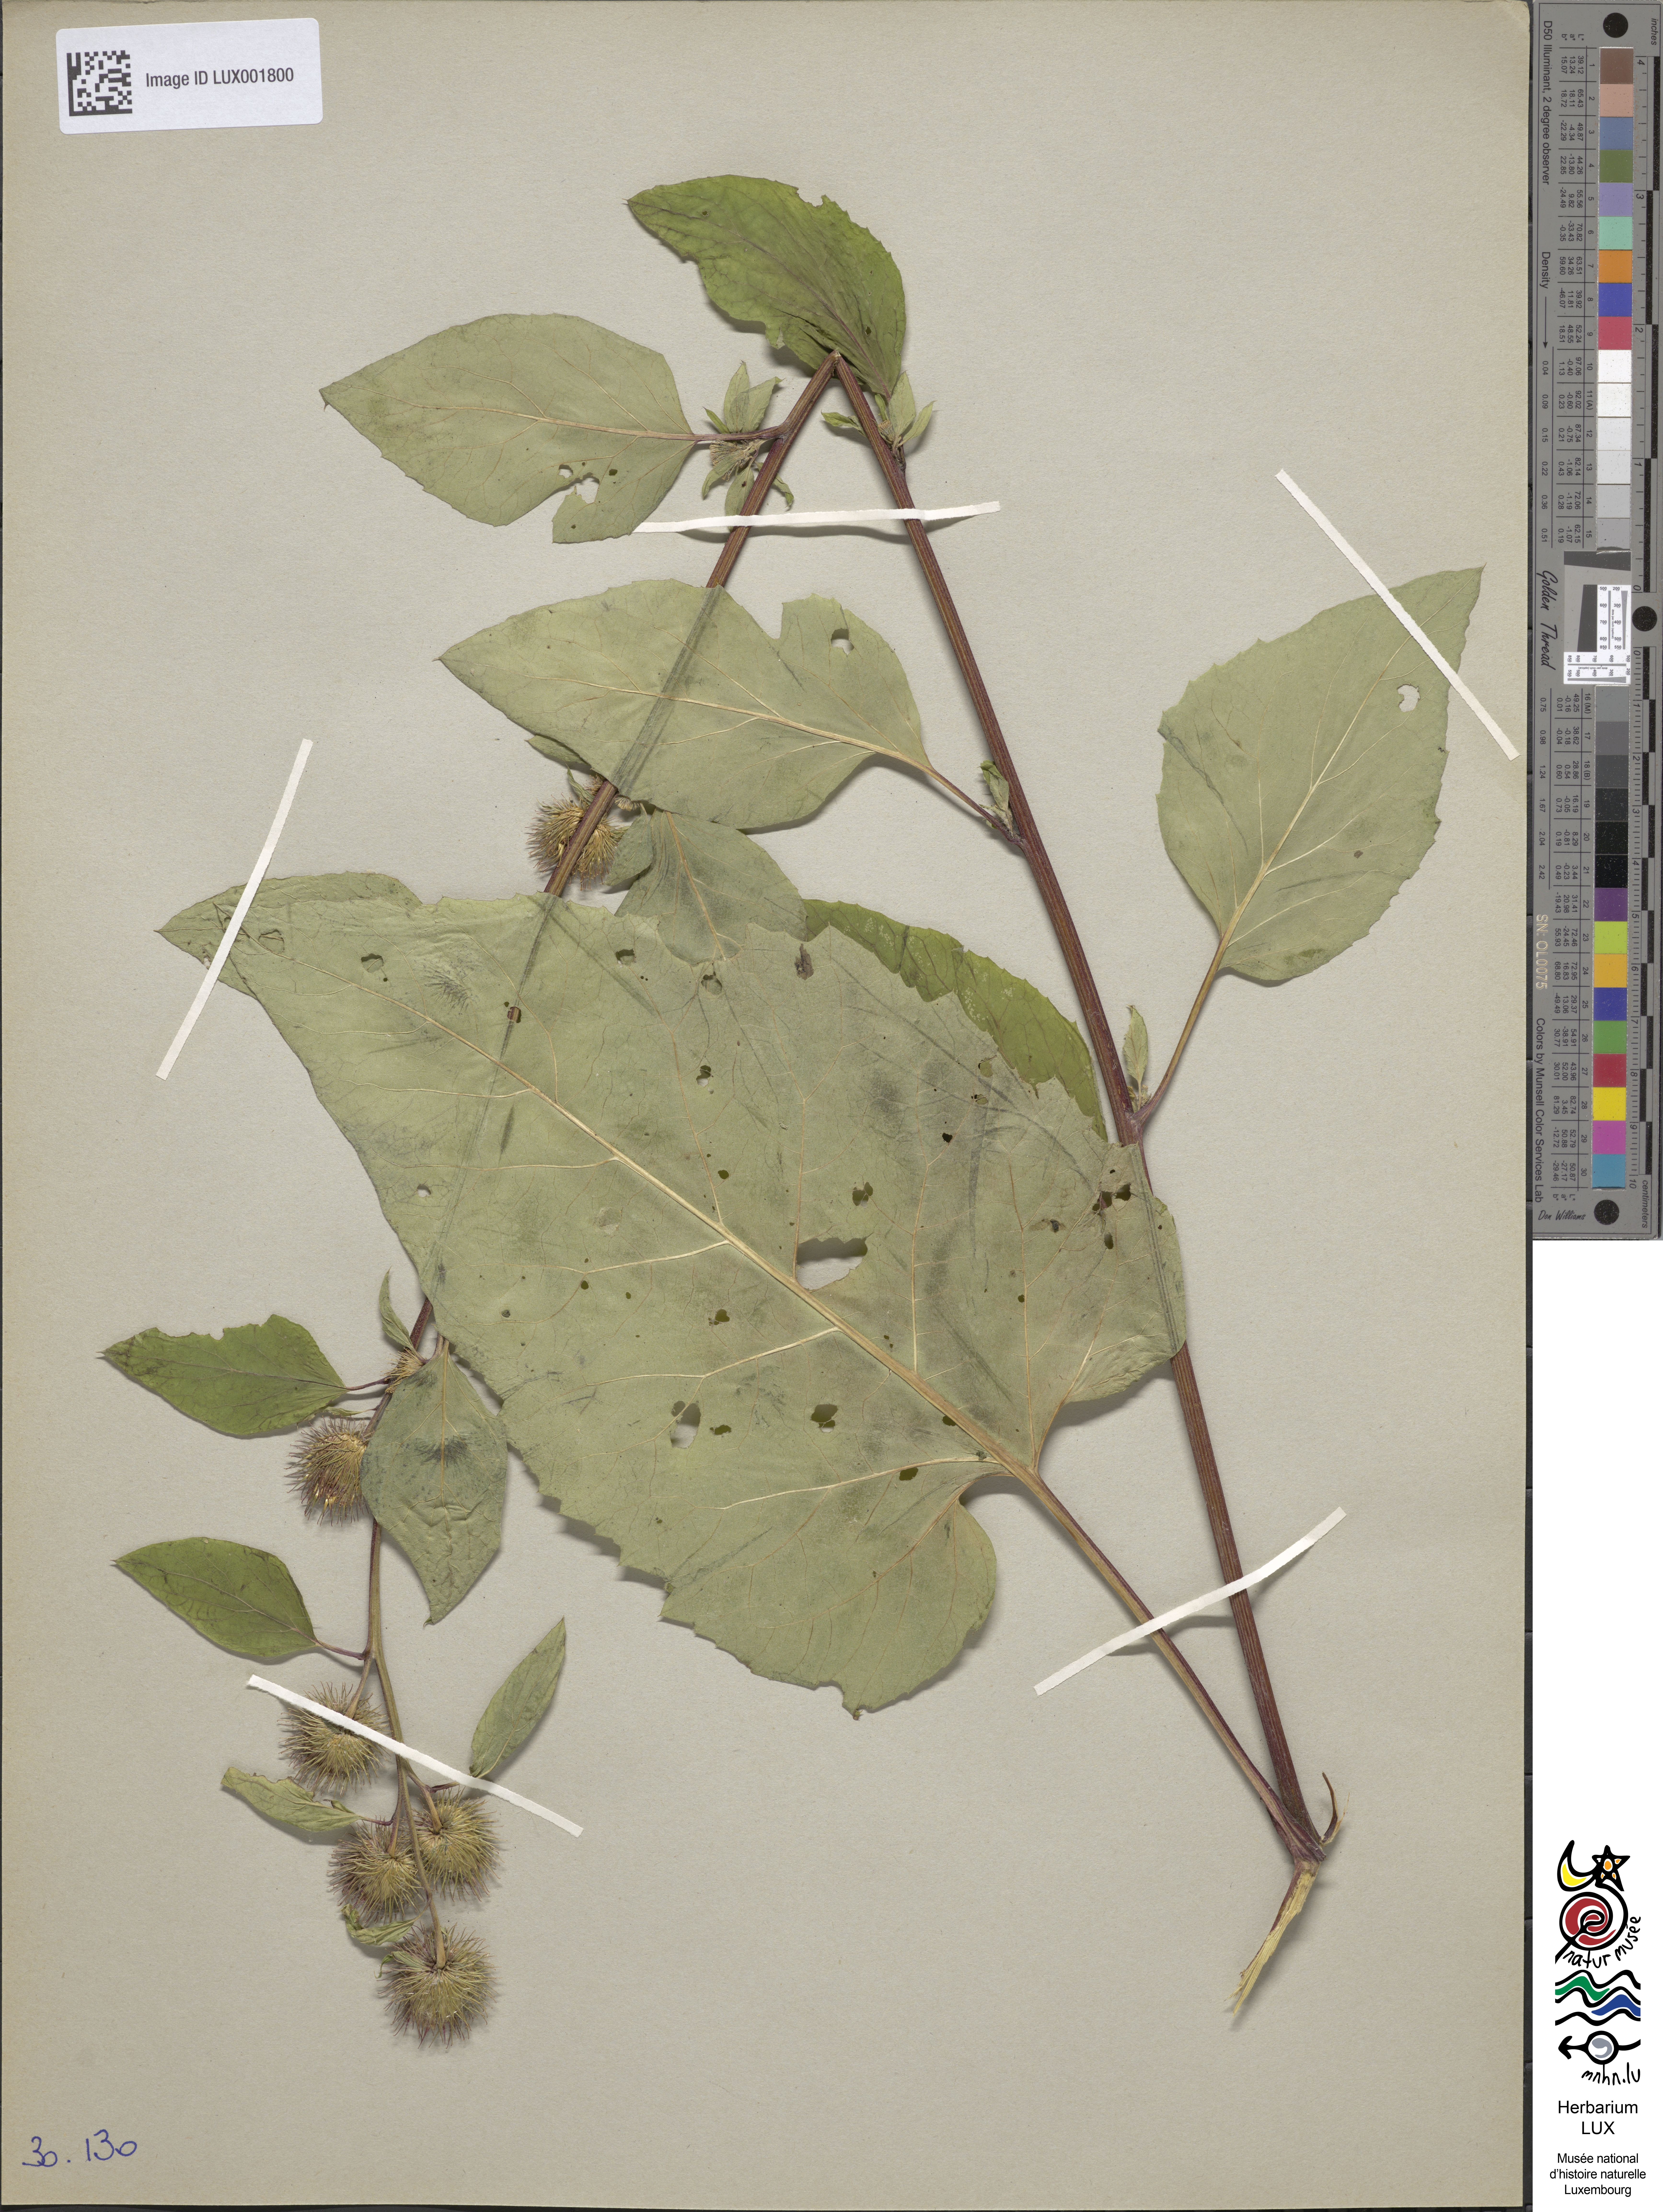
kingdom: Plantae
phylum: Tracheophyta
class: Magnoliopsida
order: Asterales
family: Asteraceae
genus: Arctium
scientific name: Arctium minus
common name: Lesser burdock
